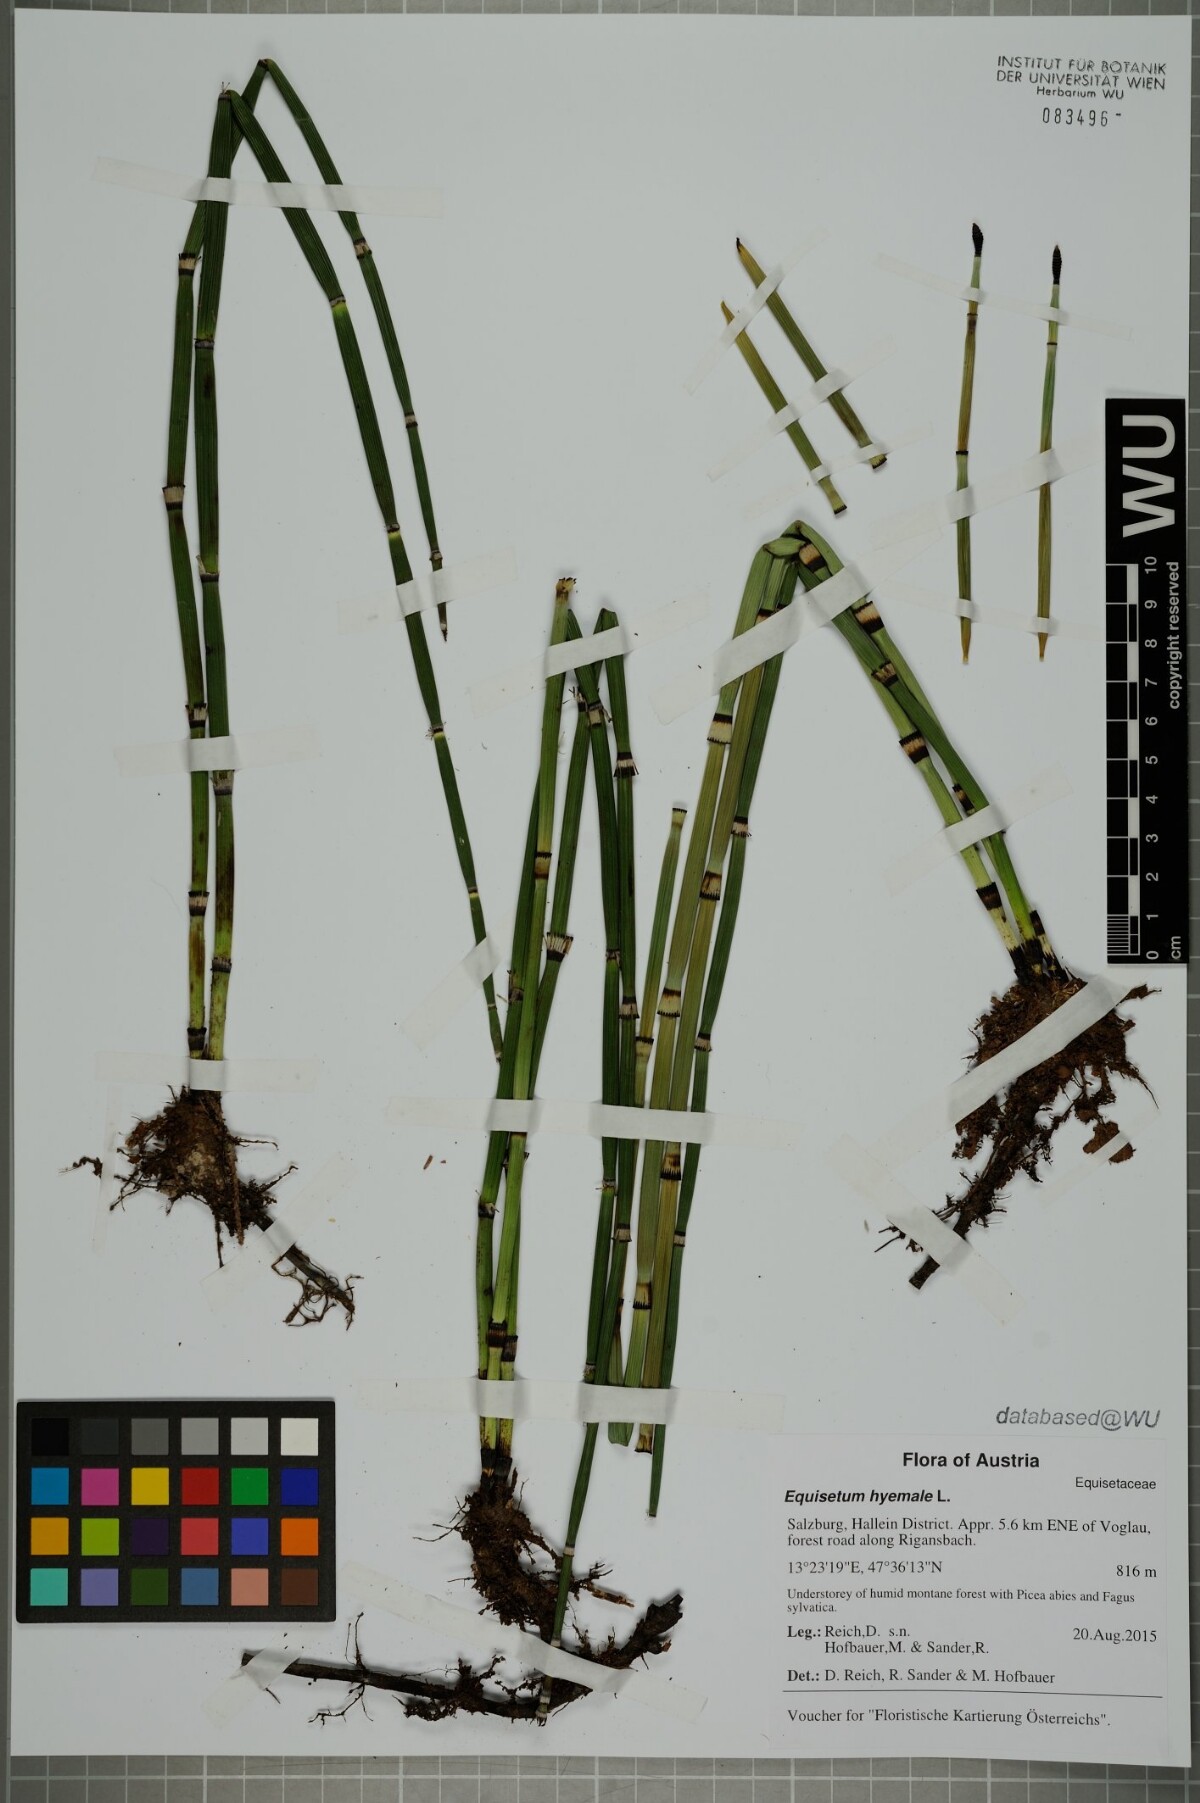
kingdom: Plantae
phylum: Tracheophyta
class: Polypodiopsida
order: Equisetales
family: Equisetaceae
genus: Equisetum
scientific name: Equisetum hyemale
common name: Rough horsetail
